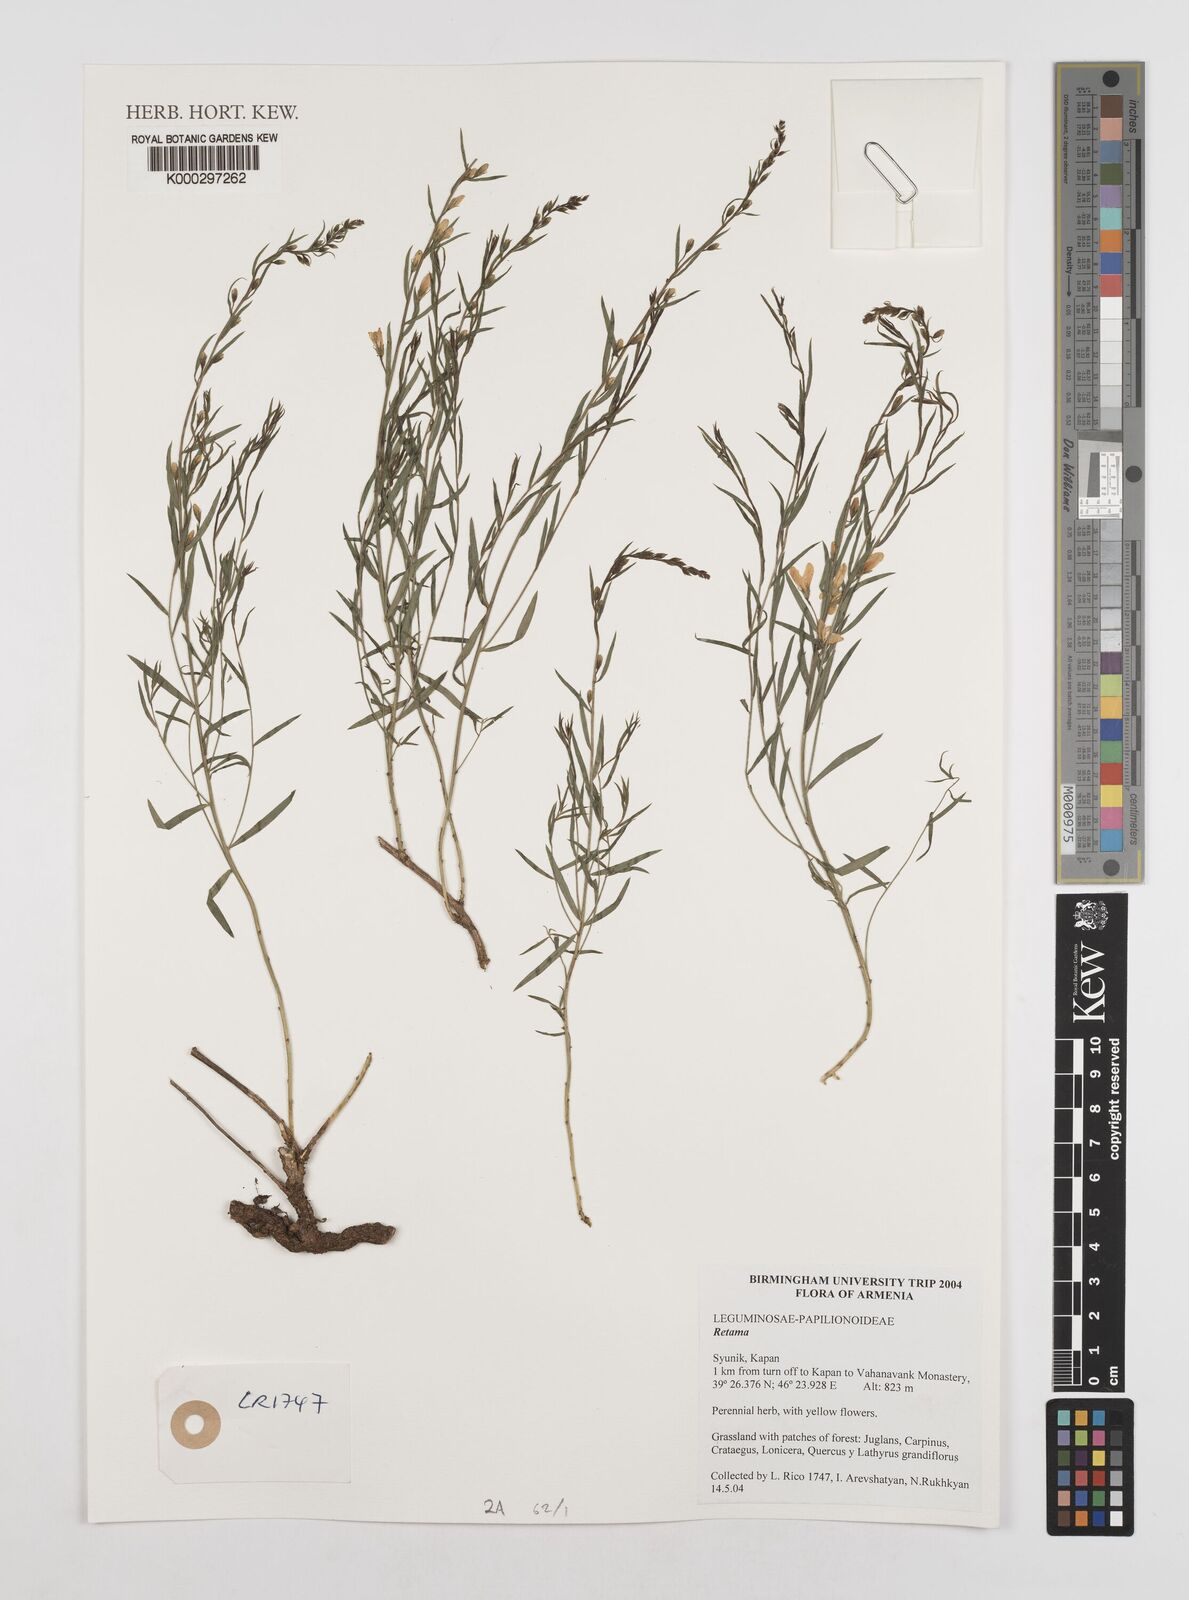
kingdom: Plantae
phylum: Tracheophyta
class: Magnoliopsida
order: Fabales
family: Fabaceae
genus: Retama
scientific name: Retama
